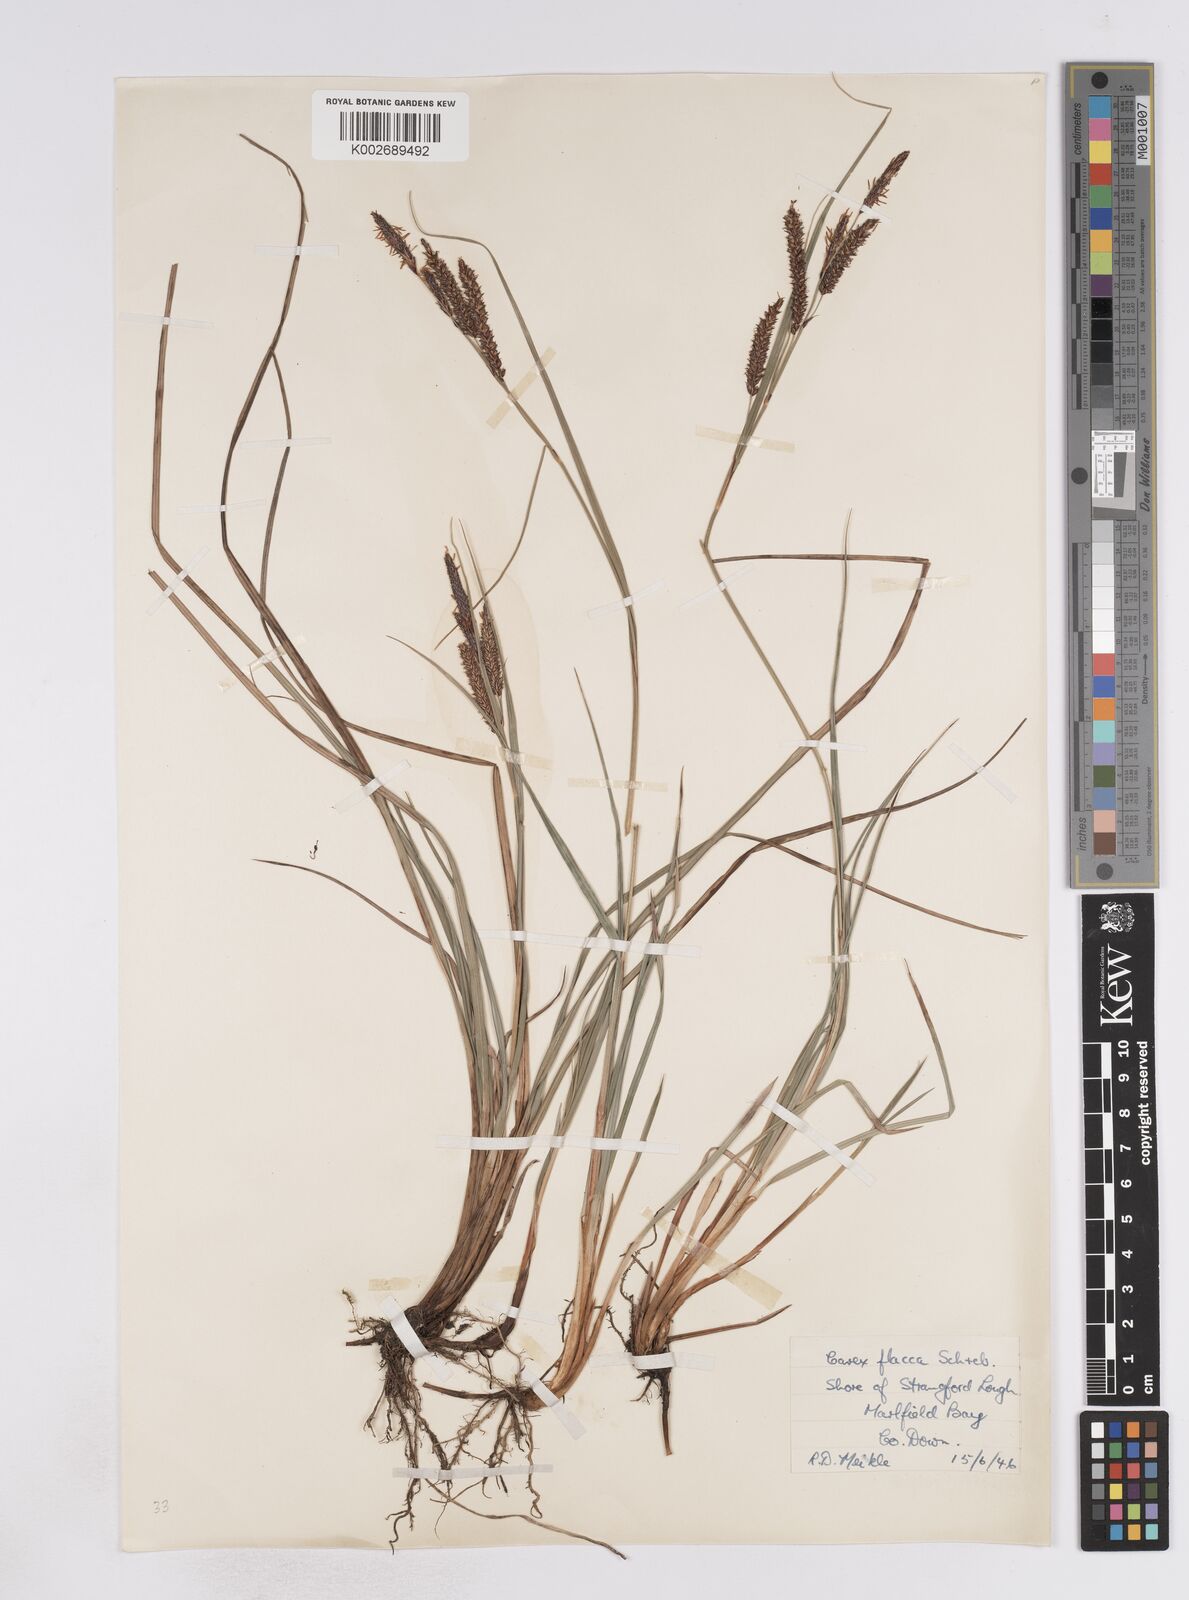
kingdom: Plantae
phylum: Tracheophyta
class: Liliopsida
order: Poales
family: Cyperaceae
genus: Carex
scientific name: Carex flacca
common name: Glaucous sedge
